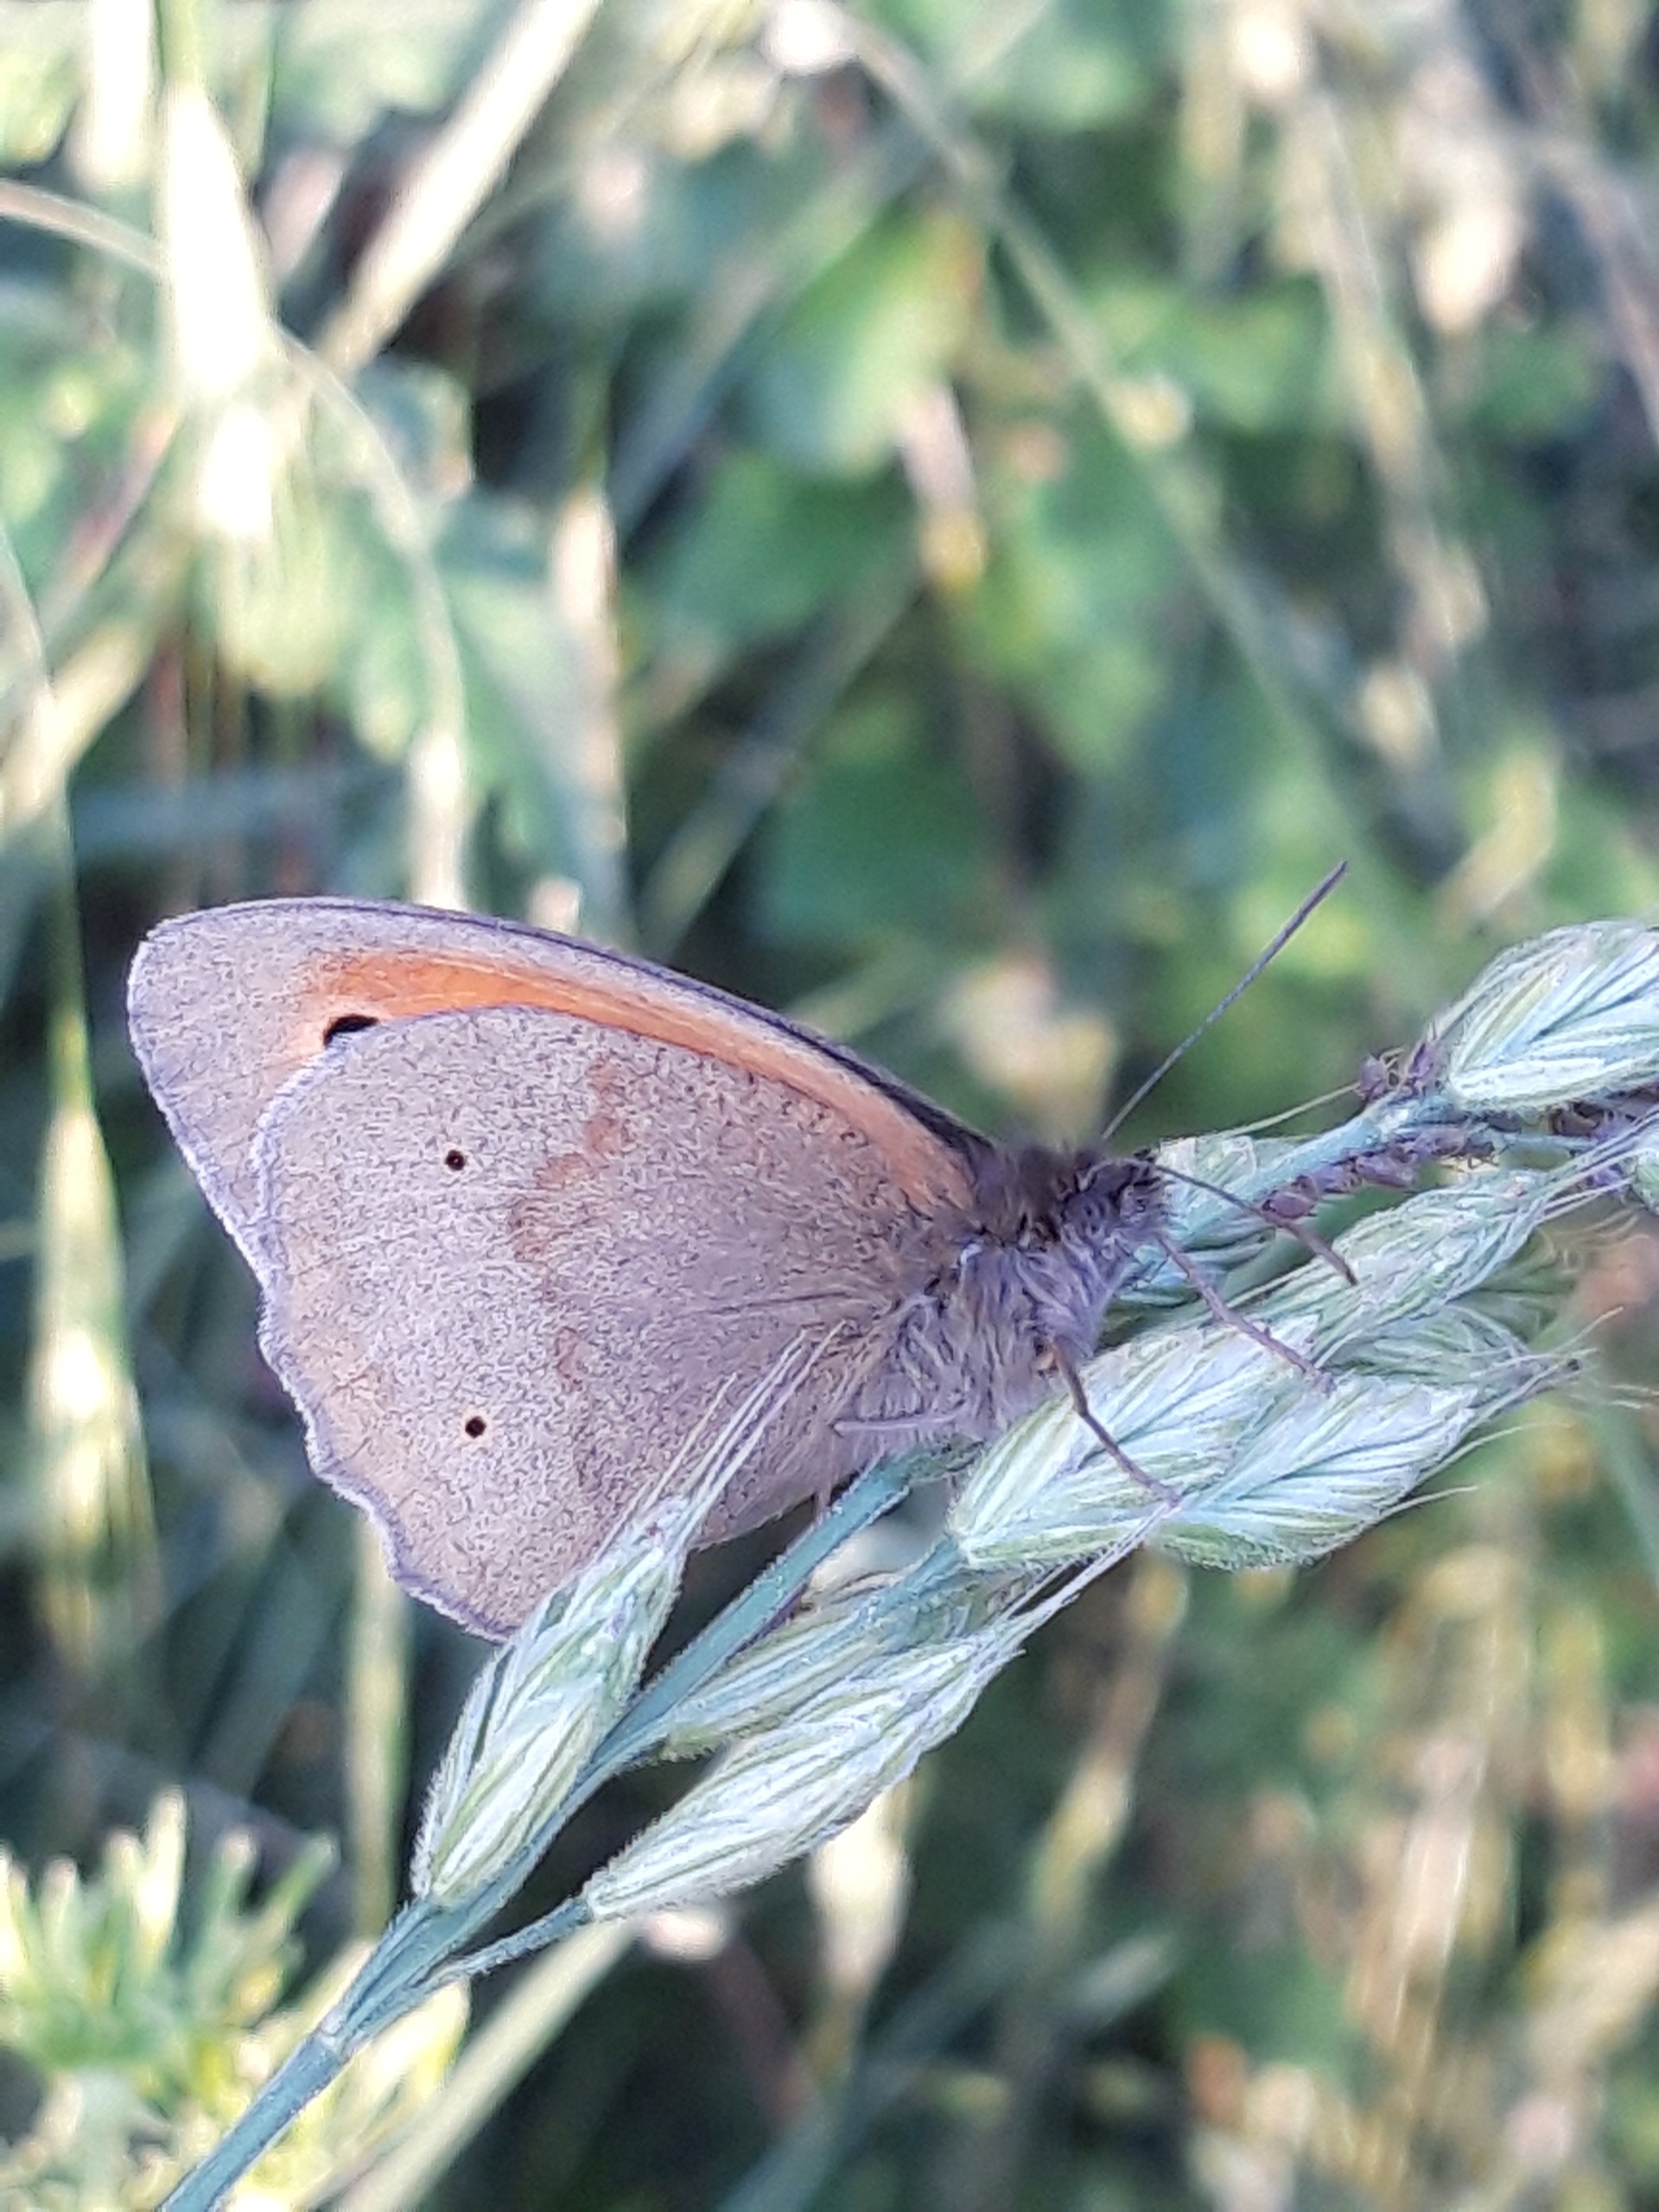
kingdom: Animalia
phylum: Arthropoda
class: Insecta
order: Lepidoptera
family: Nymphalidae
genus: Maniola
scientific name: Maniola jurtina
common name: Græsrandøje
